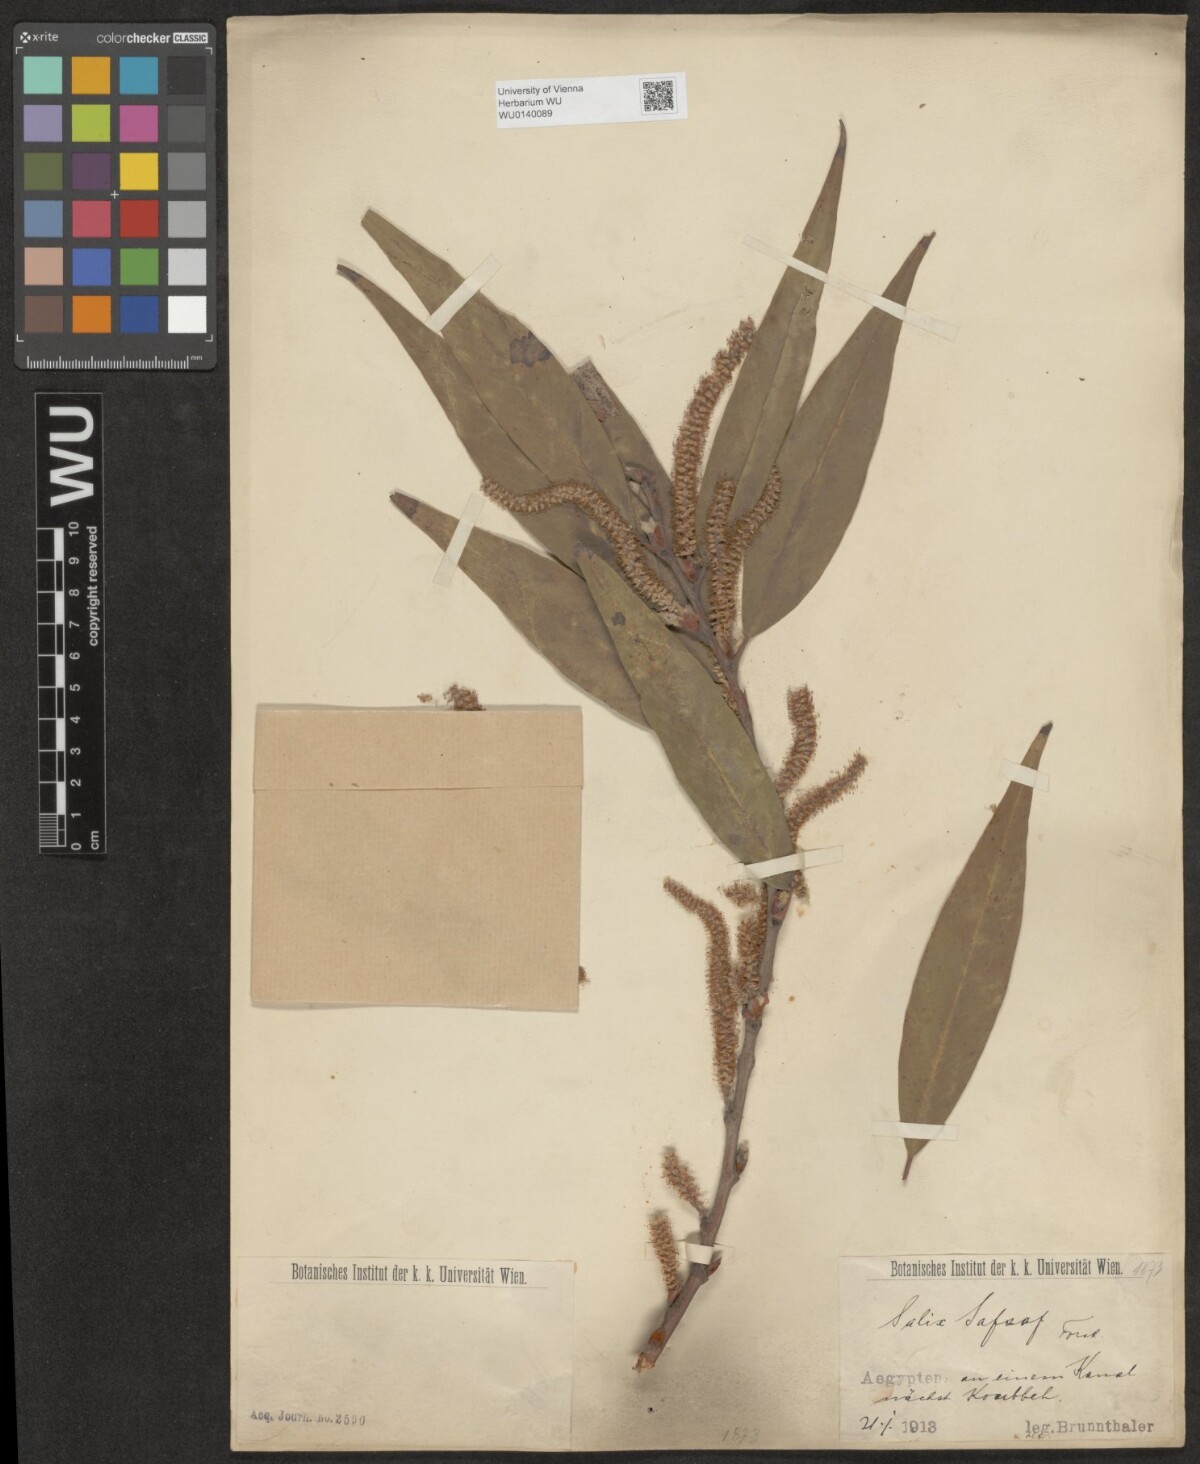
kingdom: Plantae
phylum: Tracheophyta
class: Magnoliopsida
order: Malpighiales
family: Salicaceae
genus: Salix
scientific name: Salix mucronata
